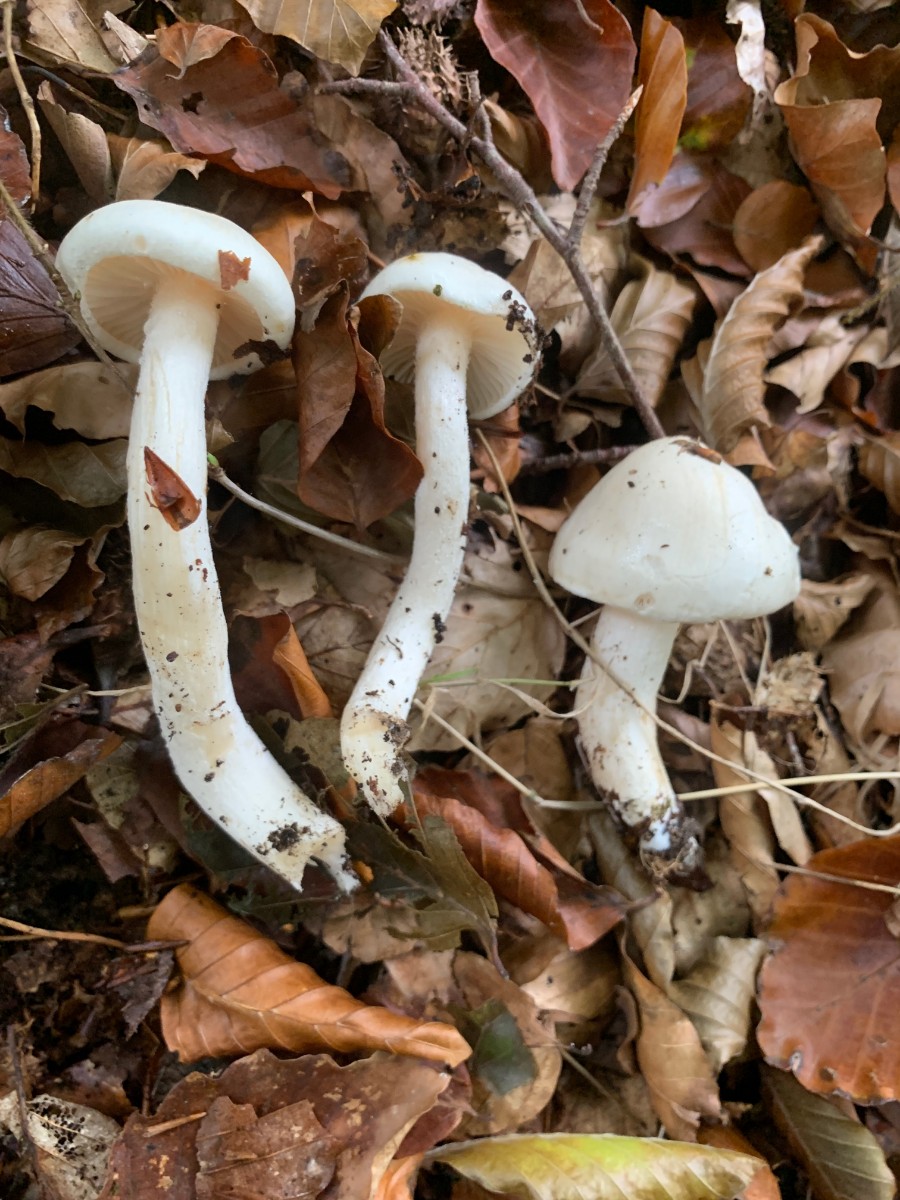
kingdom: Fungi
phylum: Basidiomycota
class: Agaricomycetes
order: Agaricales
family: Hygrophoraceae
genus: Hygrophorus
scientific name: Hygrophorus eburneus
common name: elfenbens-sneglehat
